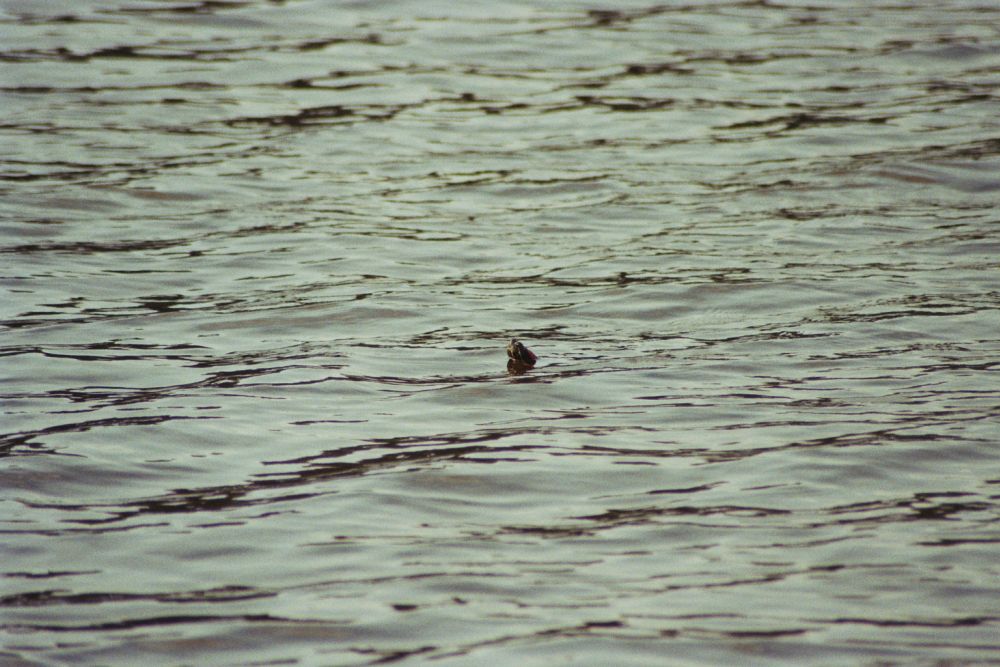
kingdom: Animalia
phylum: Chordata
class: Testudines
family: Emydidae
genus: Trachemys
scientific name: Trachemys scripta
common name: Slider
